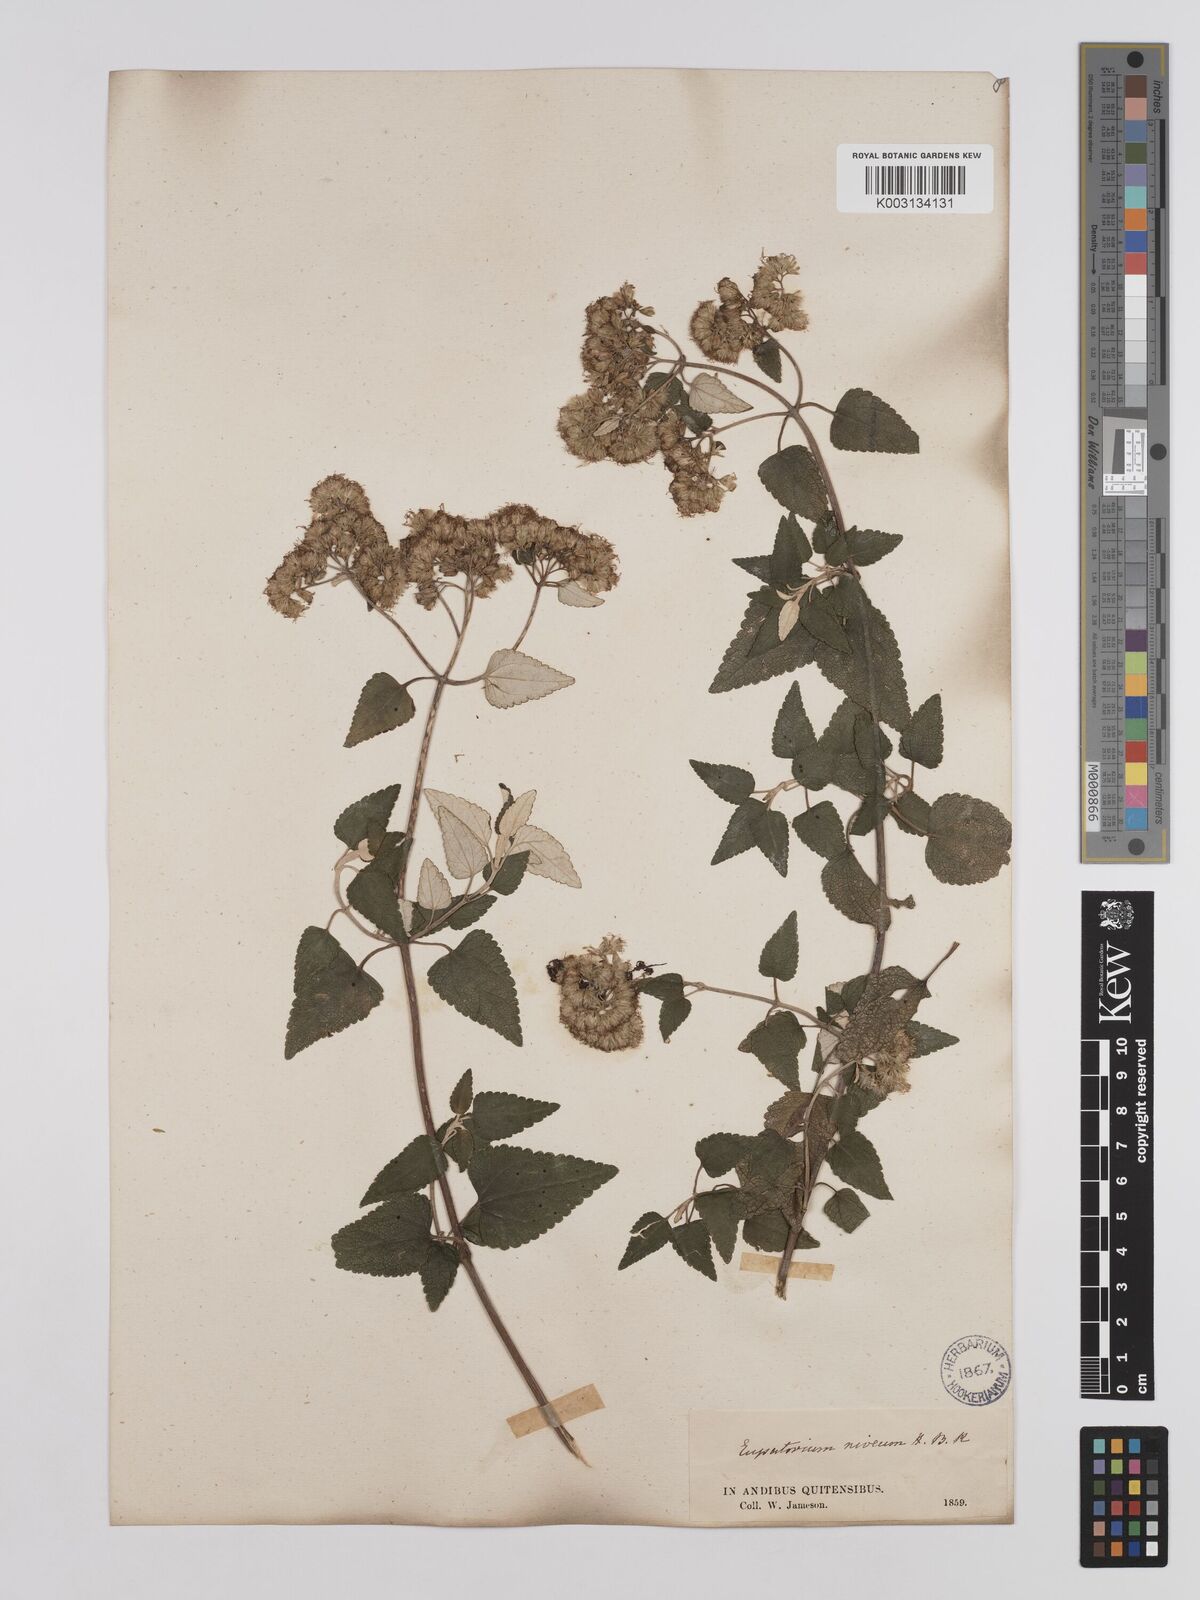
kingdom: Plantae
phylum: Tracheophyta
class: Magnoliopsida
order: Asterales
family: Asteraceae
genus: Cronquistianthus
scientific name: Cronquistianthus leucophyllus
